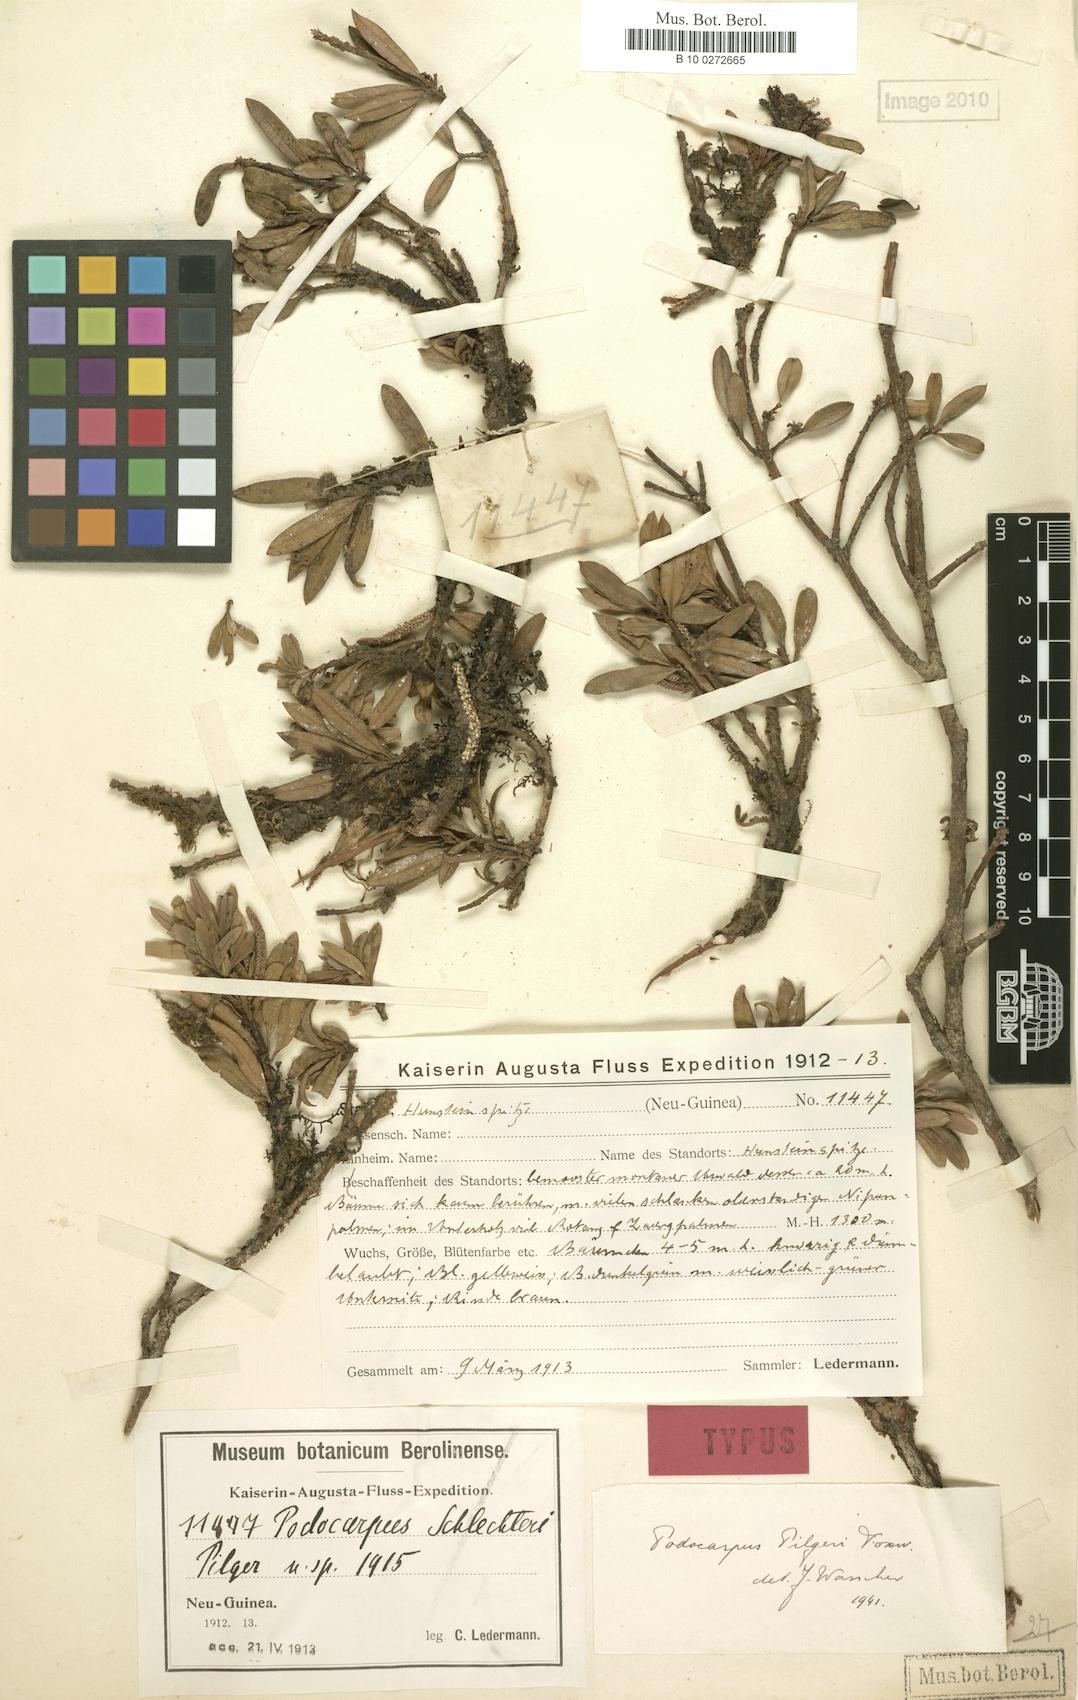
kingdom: Plantae
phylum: Tracheophyta
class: Pinopsida
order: Pinales
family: Podocarpaceae
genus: Podocarpus
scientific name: Podocarpus pilgeri
